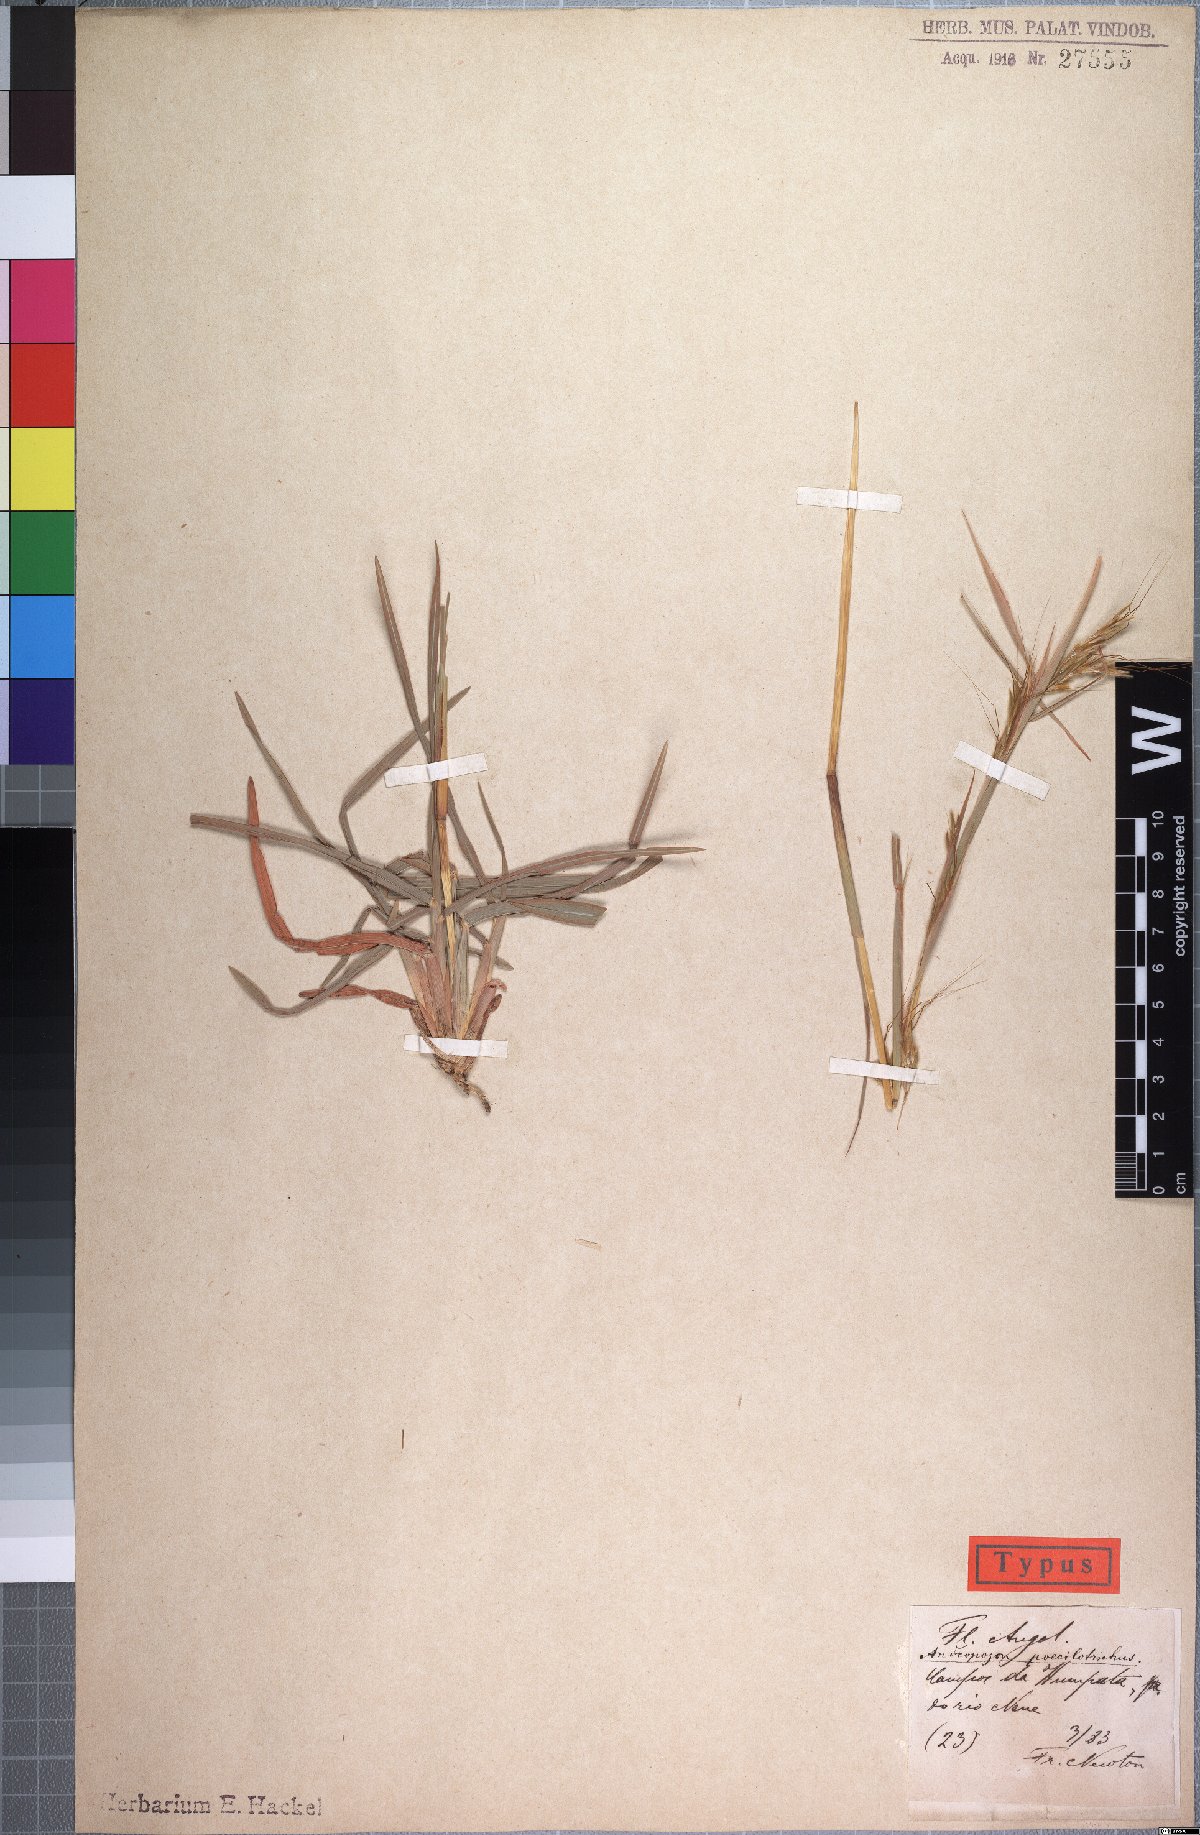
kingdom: Plantae
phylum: Tracheophyta
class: Liliopsida
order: Poales
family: Poaceae
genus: Hyparrhenia
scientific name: Hyparrhenia poecilotricha
